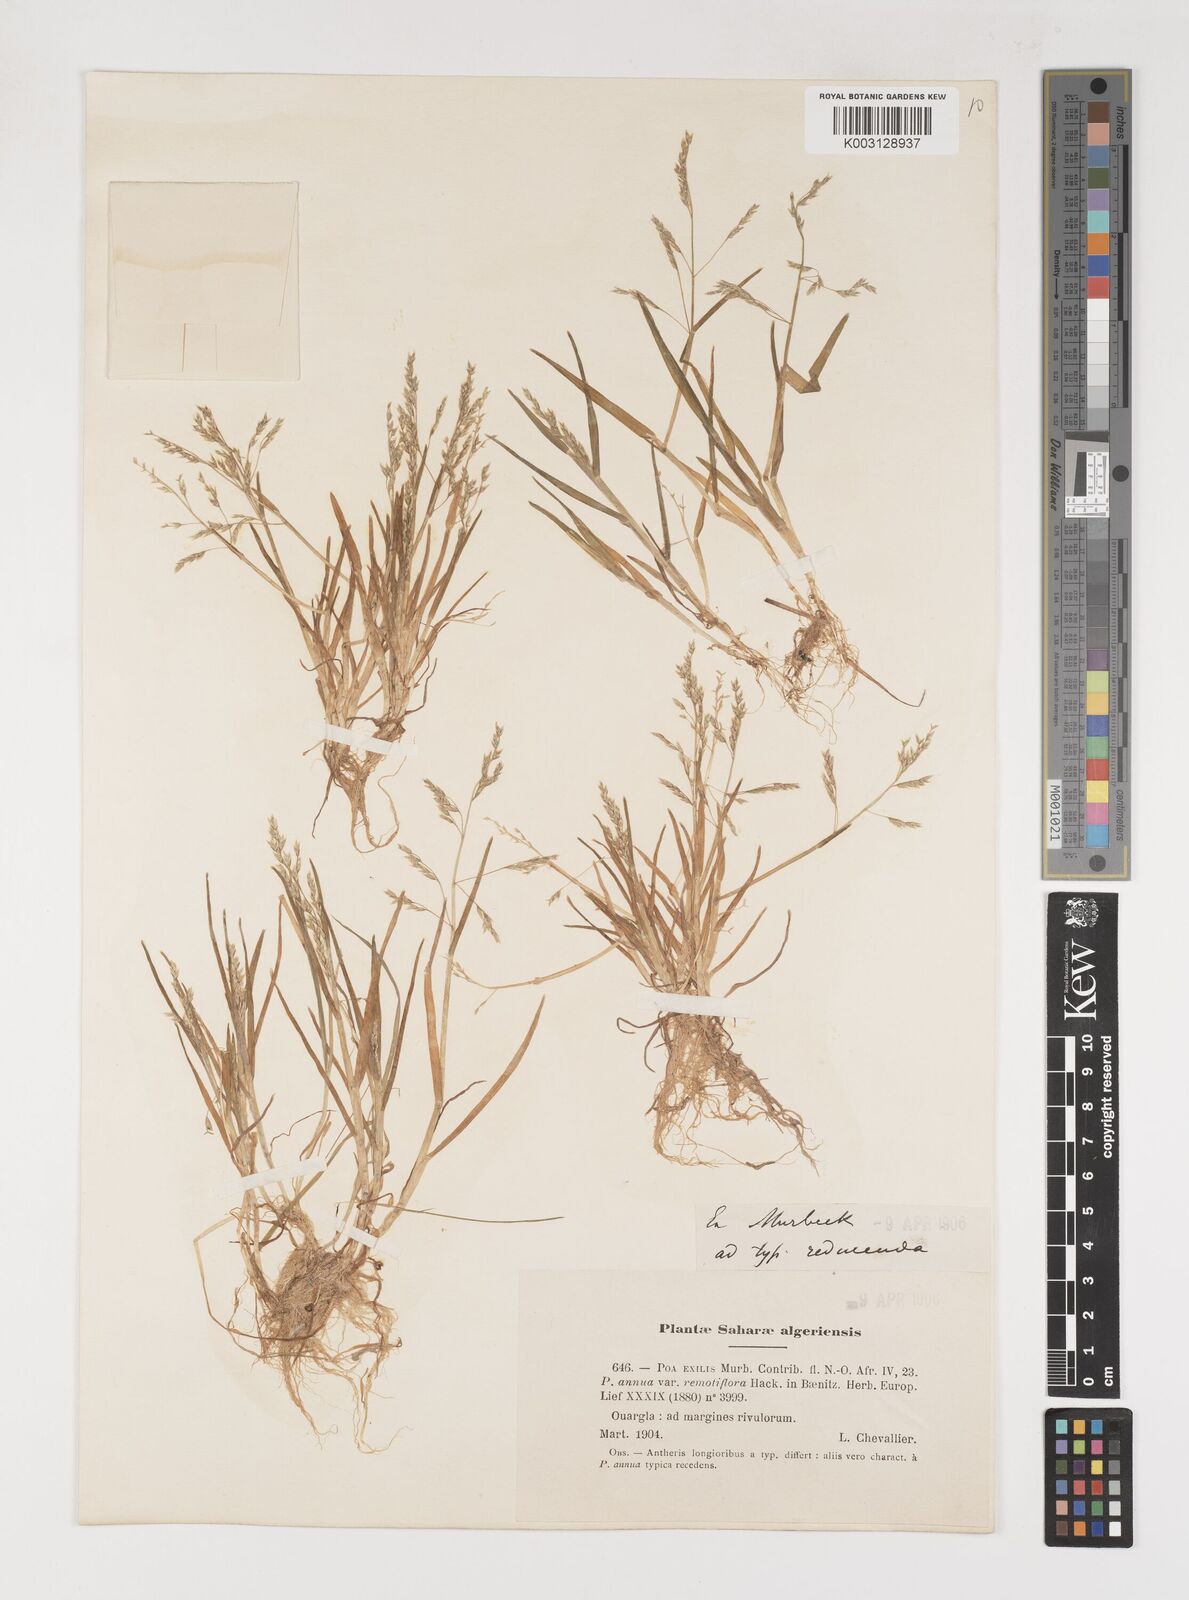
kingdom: Plantae
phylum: Tracheophyta
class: Liliopsida
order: Poales
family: Poaceae
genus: Poa
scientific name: Poa infirma
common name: Weak bluegrass
